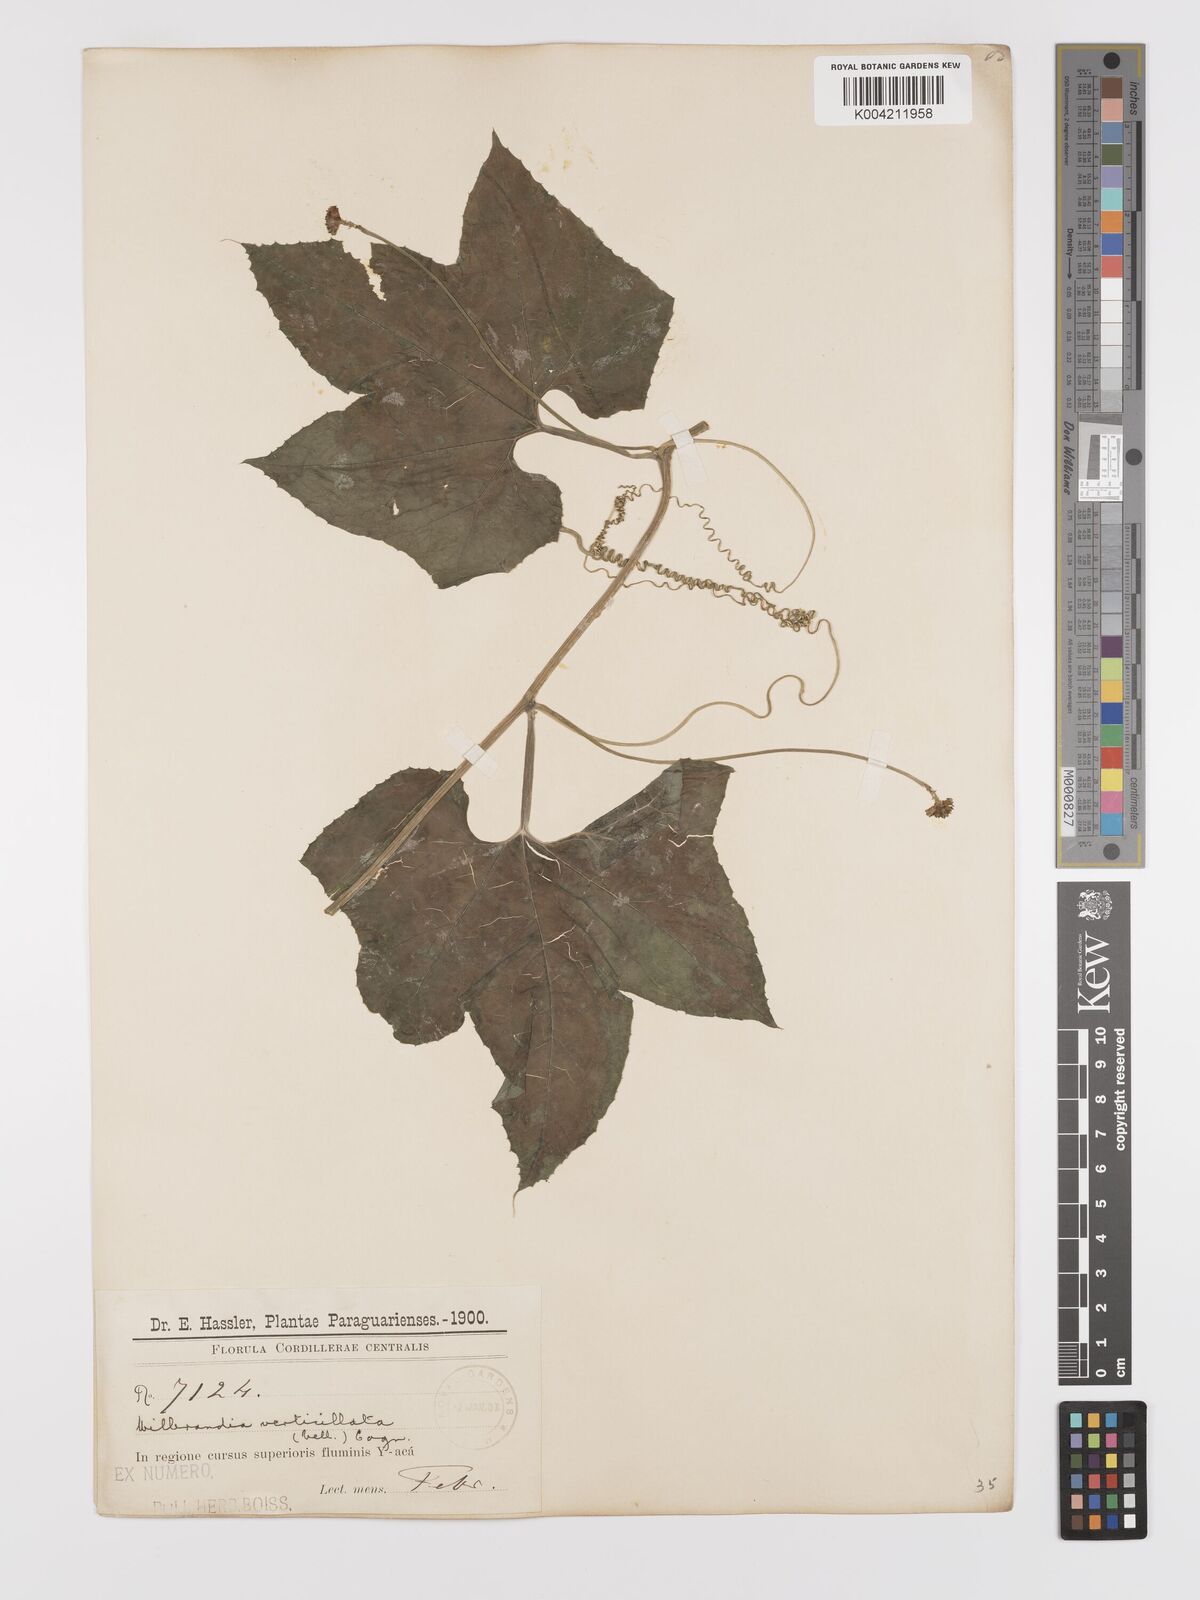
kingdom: Plantae
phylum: Tracheophyta
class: Magnoliopsida
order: Cucurbitales
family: Cucurbitaceae
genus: Wilbrandia
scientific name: Wilbrandia ebracteata
